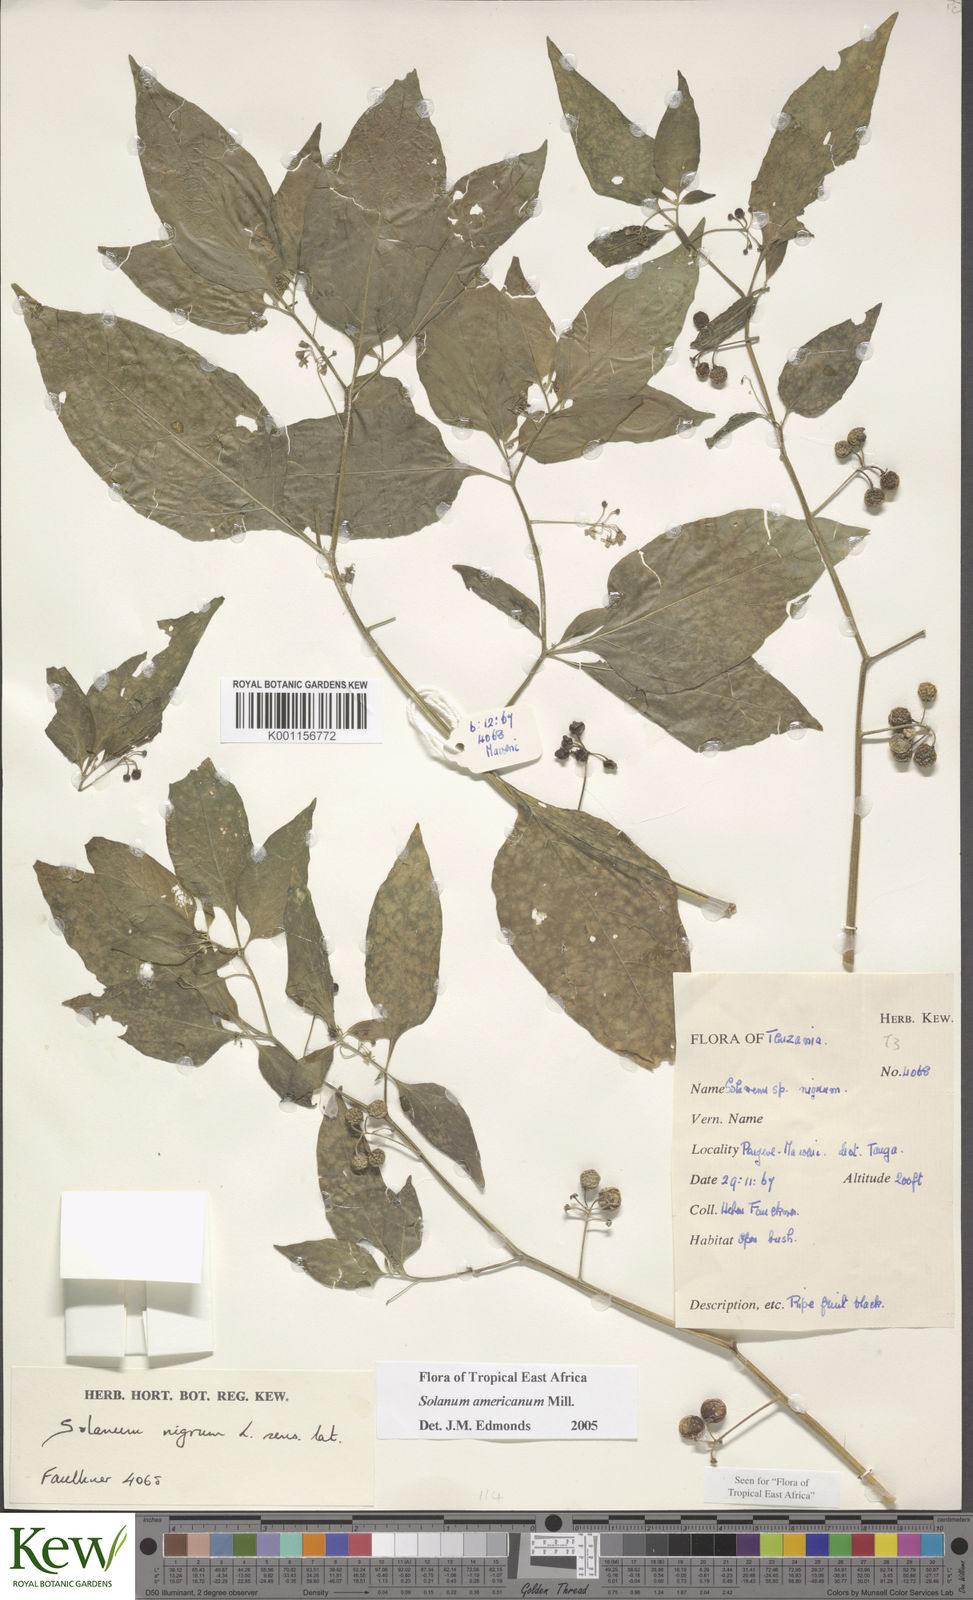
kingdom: Plantae
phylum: Tracheophyta
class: Magnoliopsida
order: Solanales
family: Solanaceae
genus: Solanum
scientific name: Solanum americanum
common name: American black nightshade
